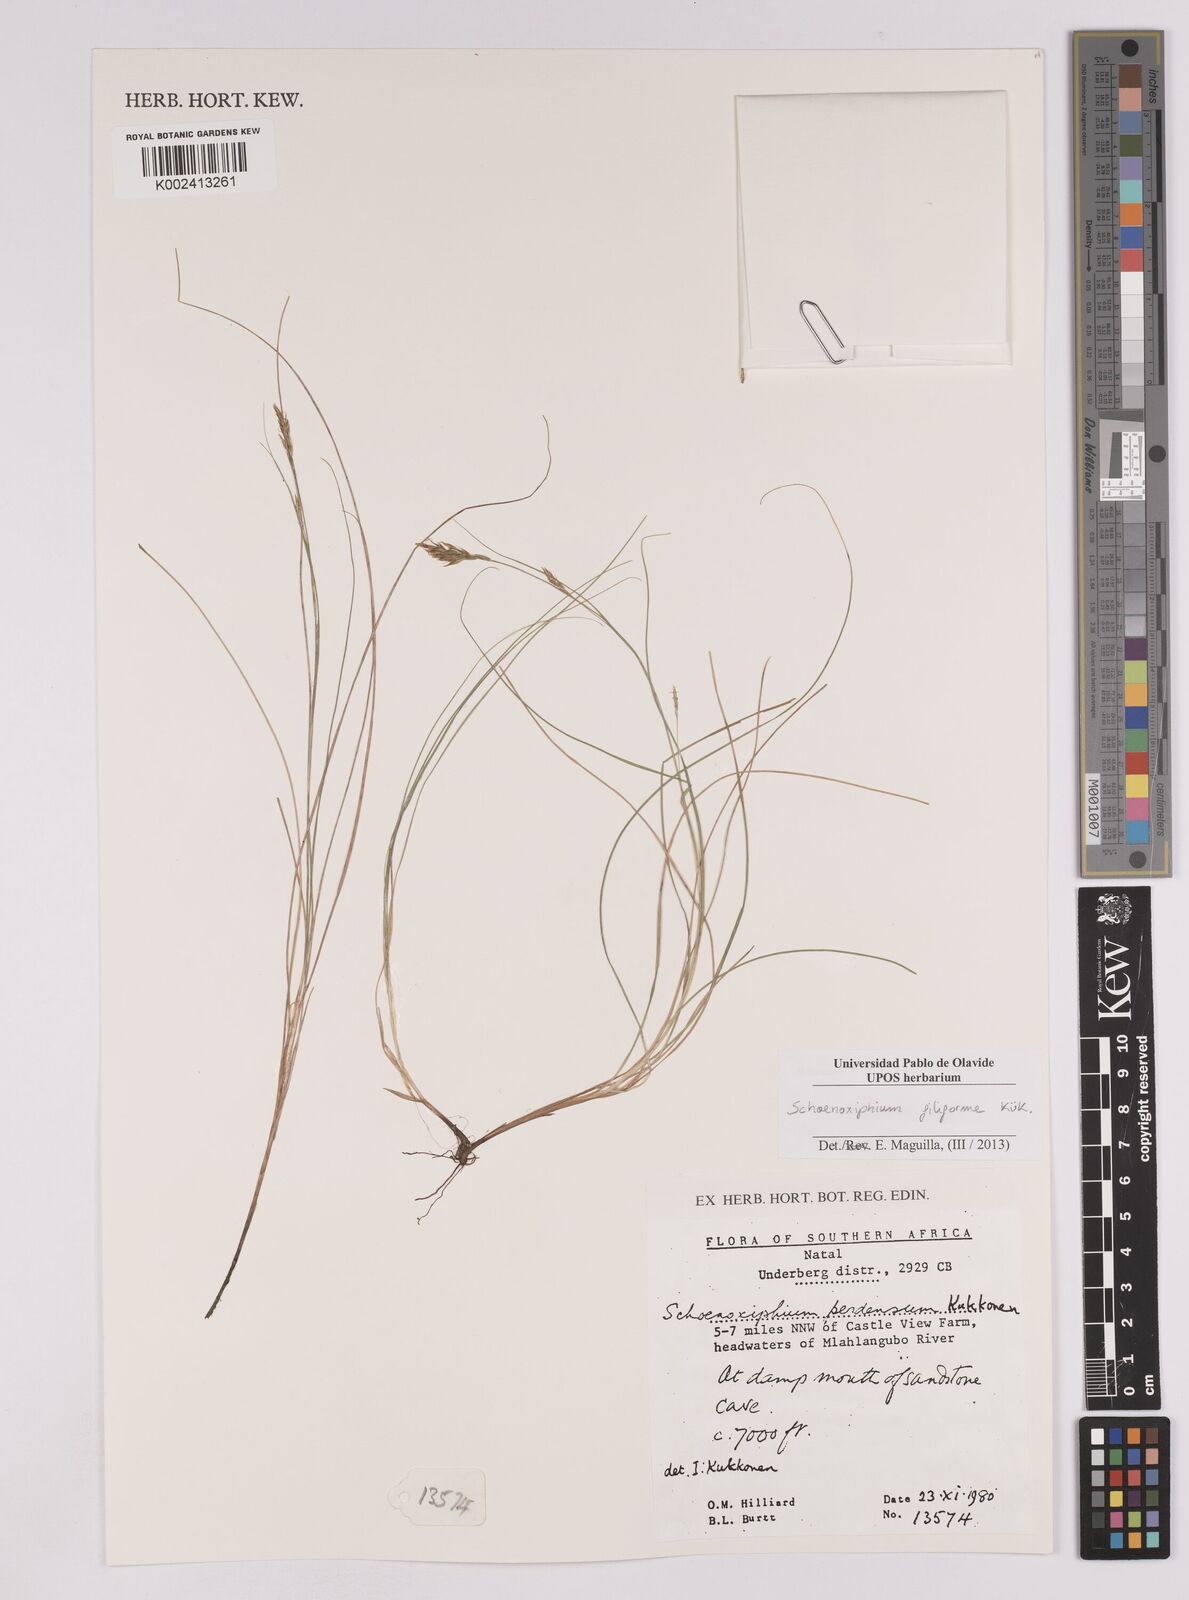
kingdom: Plantae
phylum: Tracheophyta
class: Liliopsida
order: Poales
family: Cyperaceae
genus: Carex
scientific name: Carex killickii
